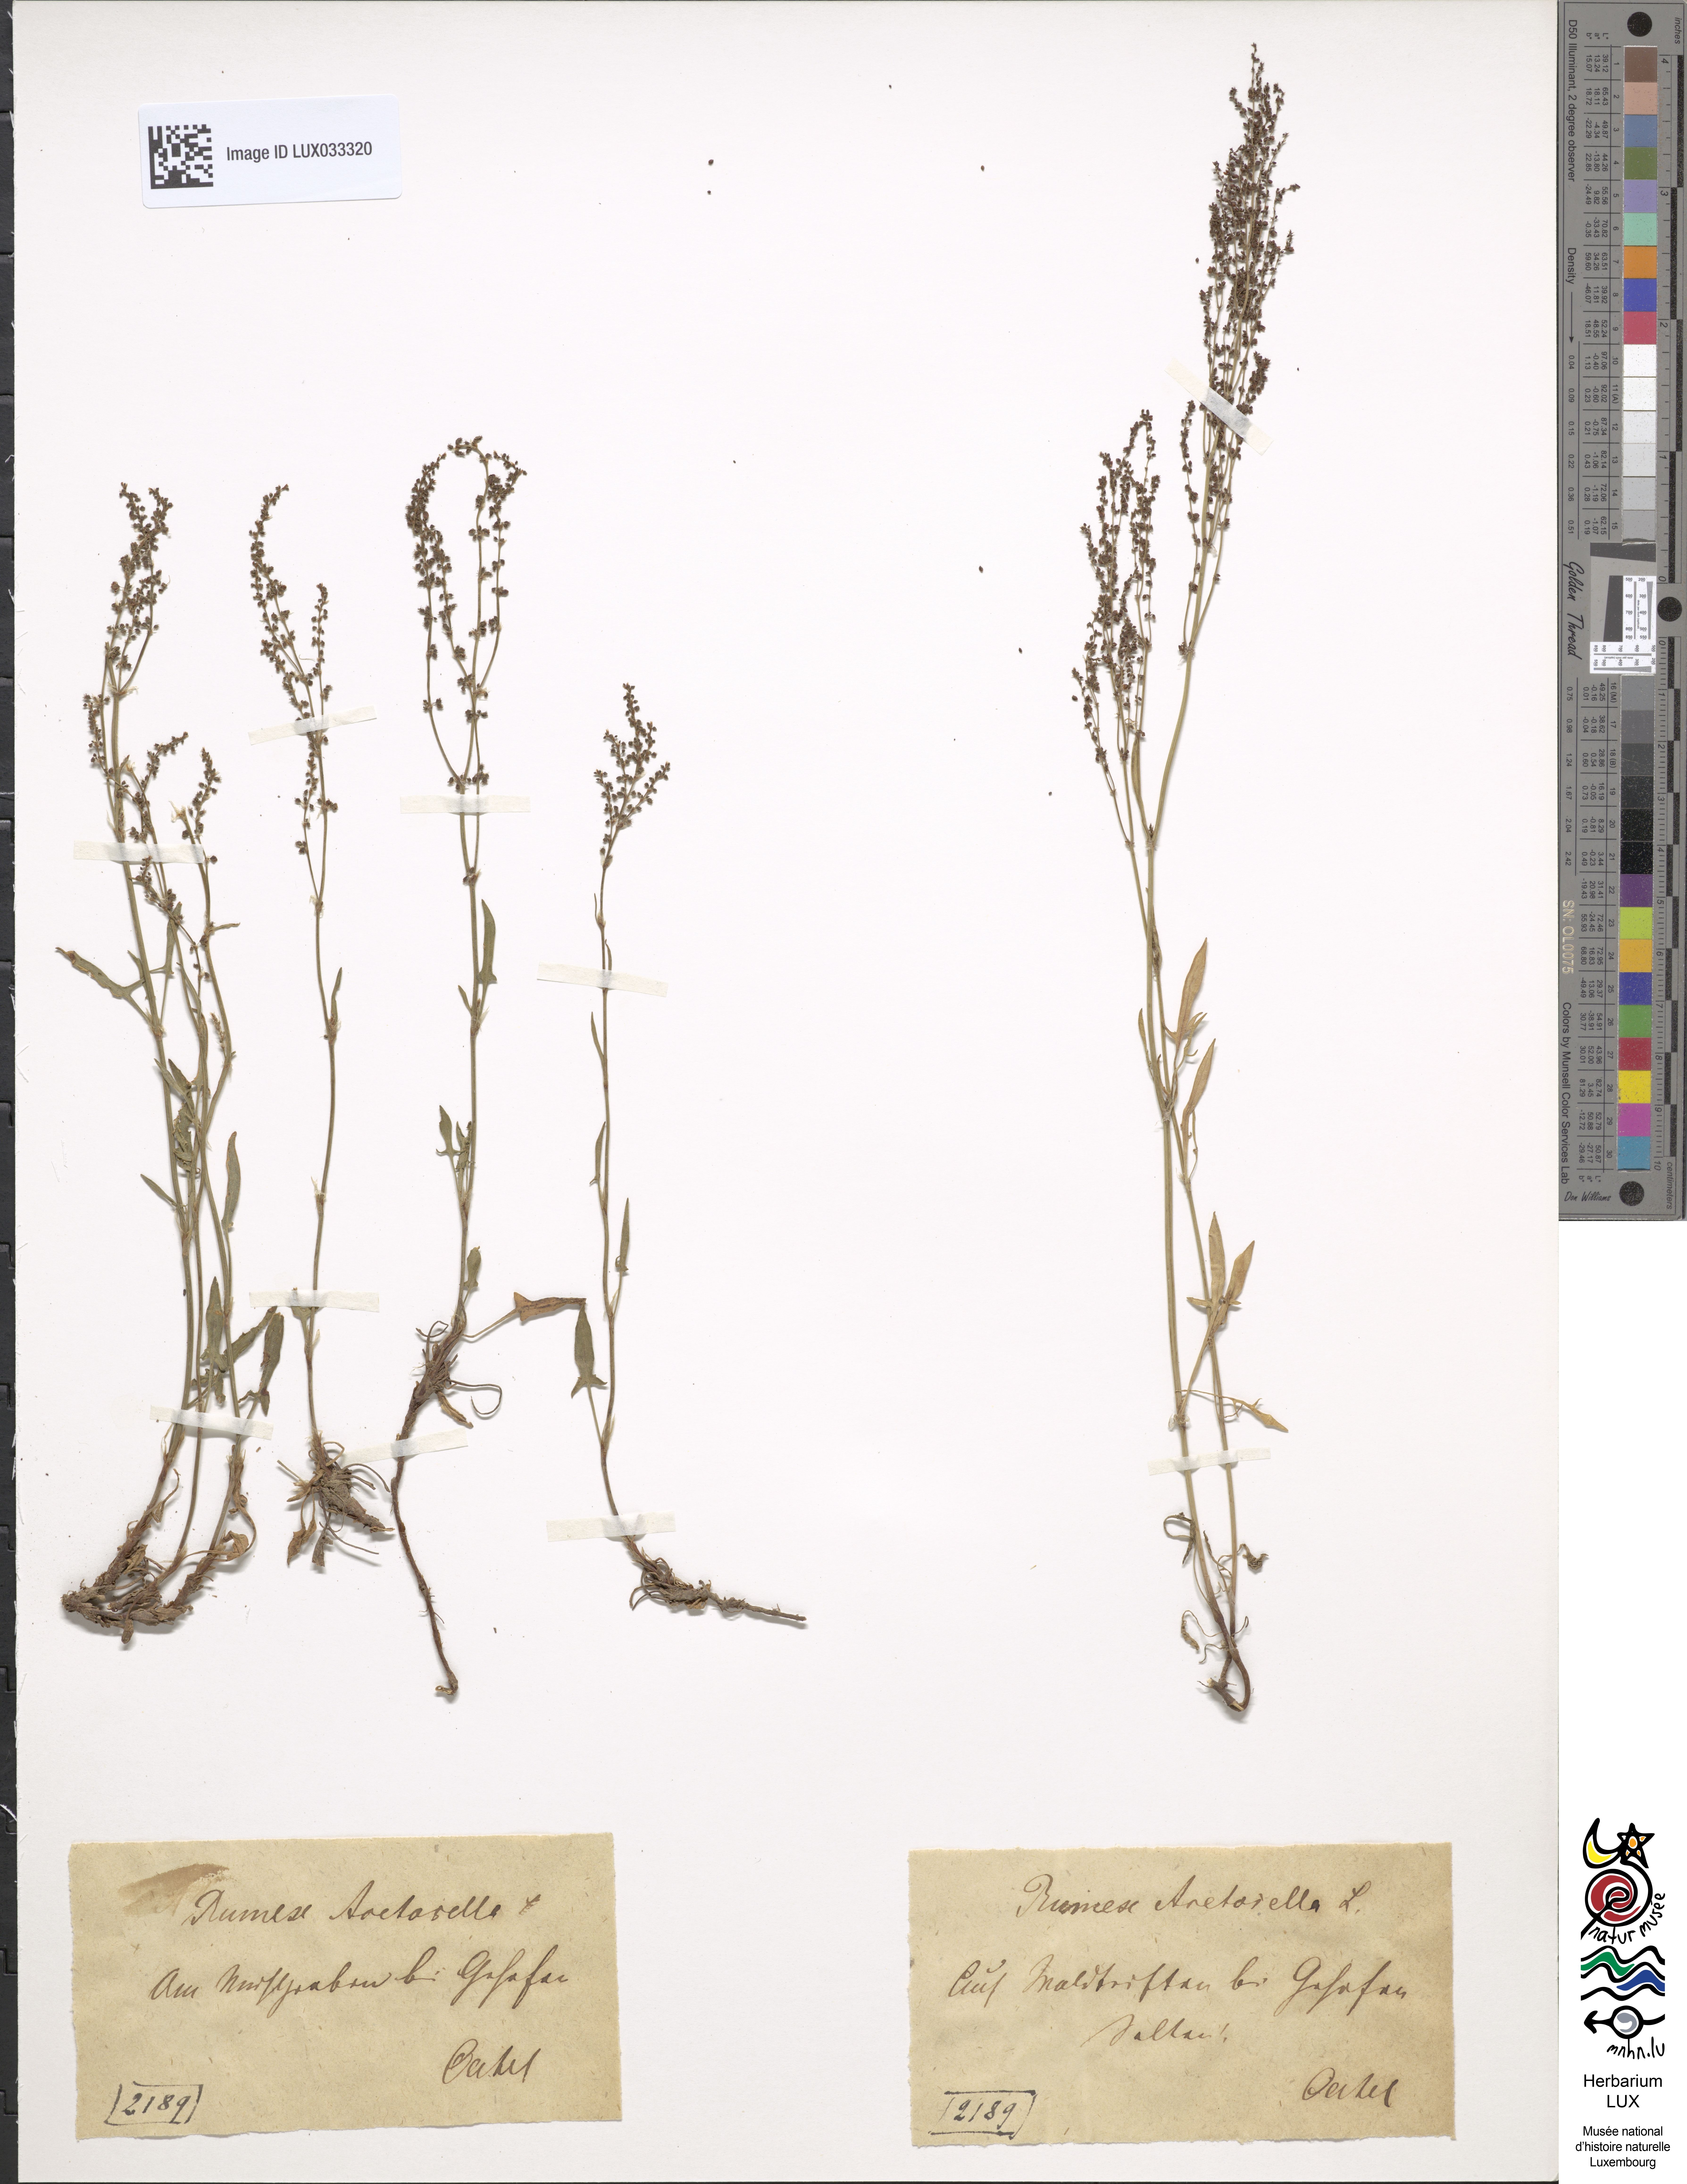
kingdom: Plantae
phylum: Tracheophyta
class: Magnoliopsida
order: Caryophyllales
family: Polygonaceae
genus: Rumex
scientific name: Rumex acetosella
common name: Common sheep sorrel
